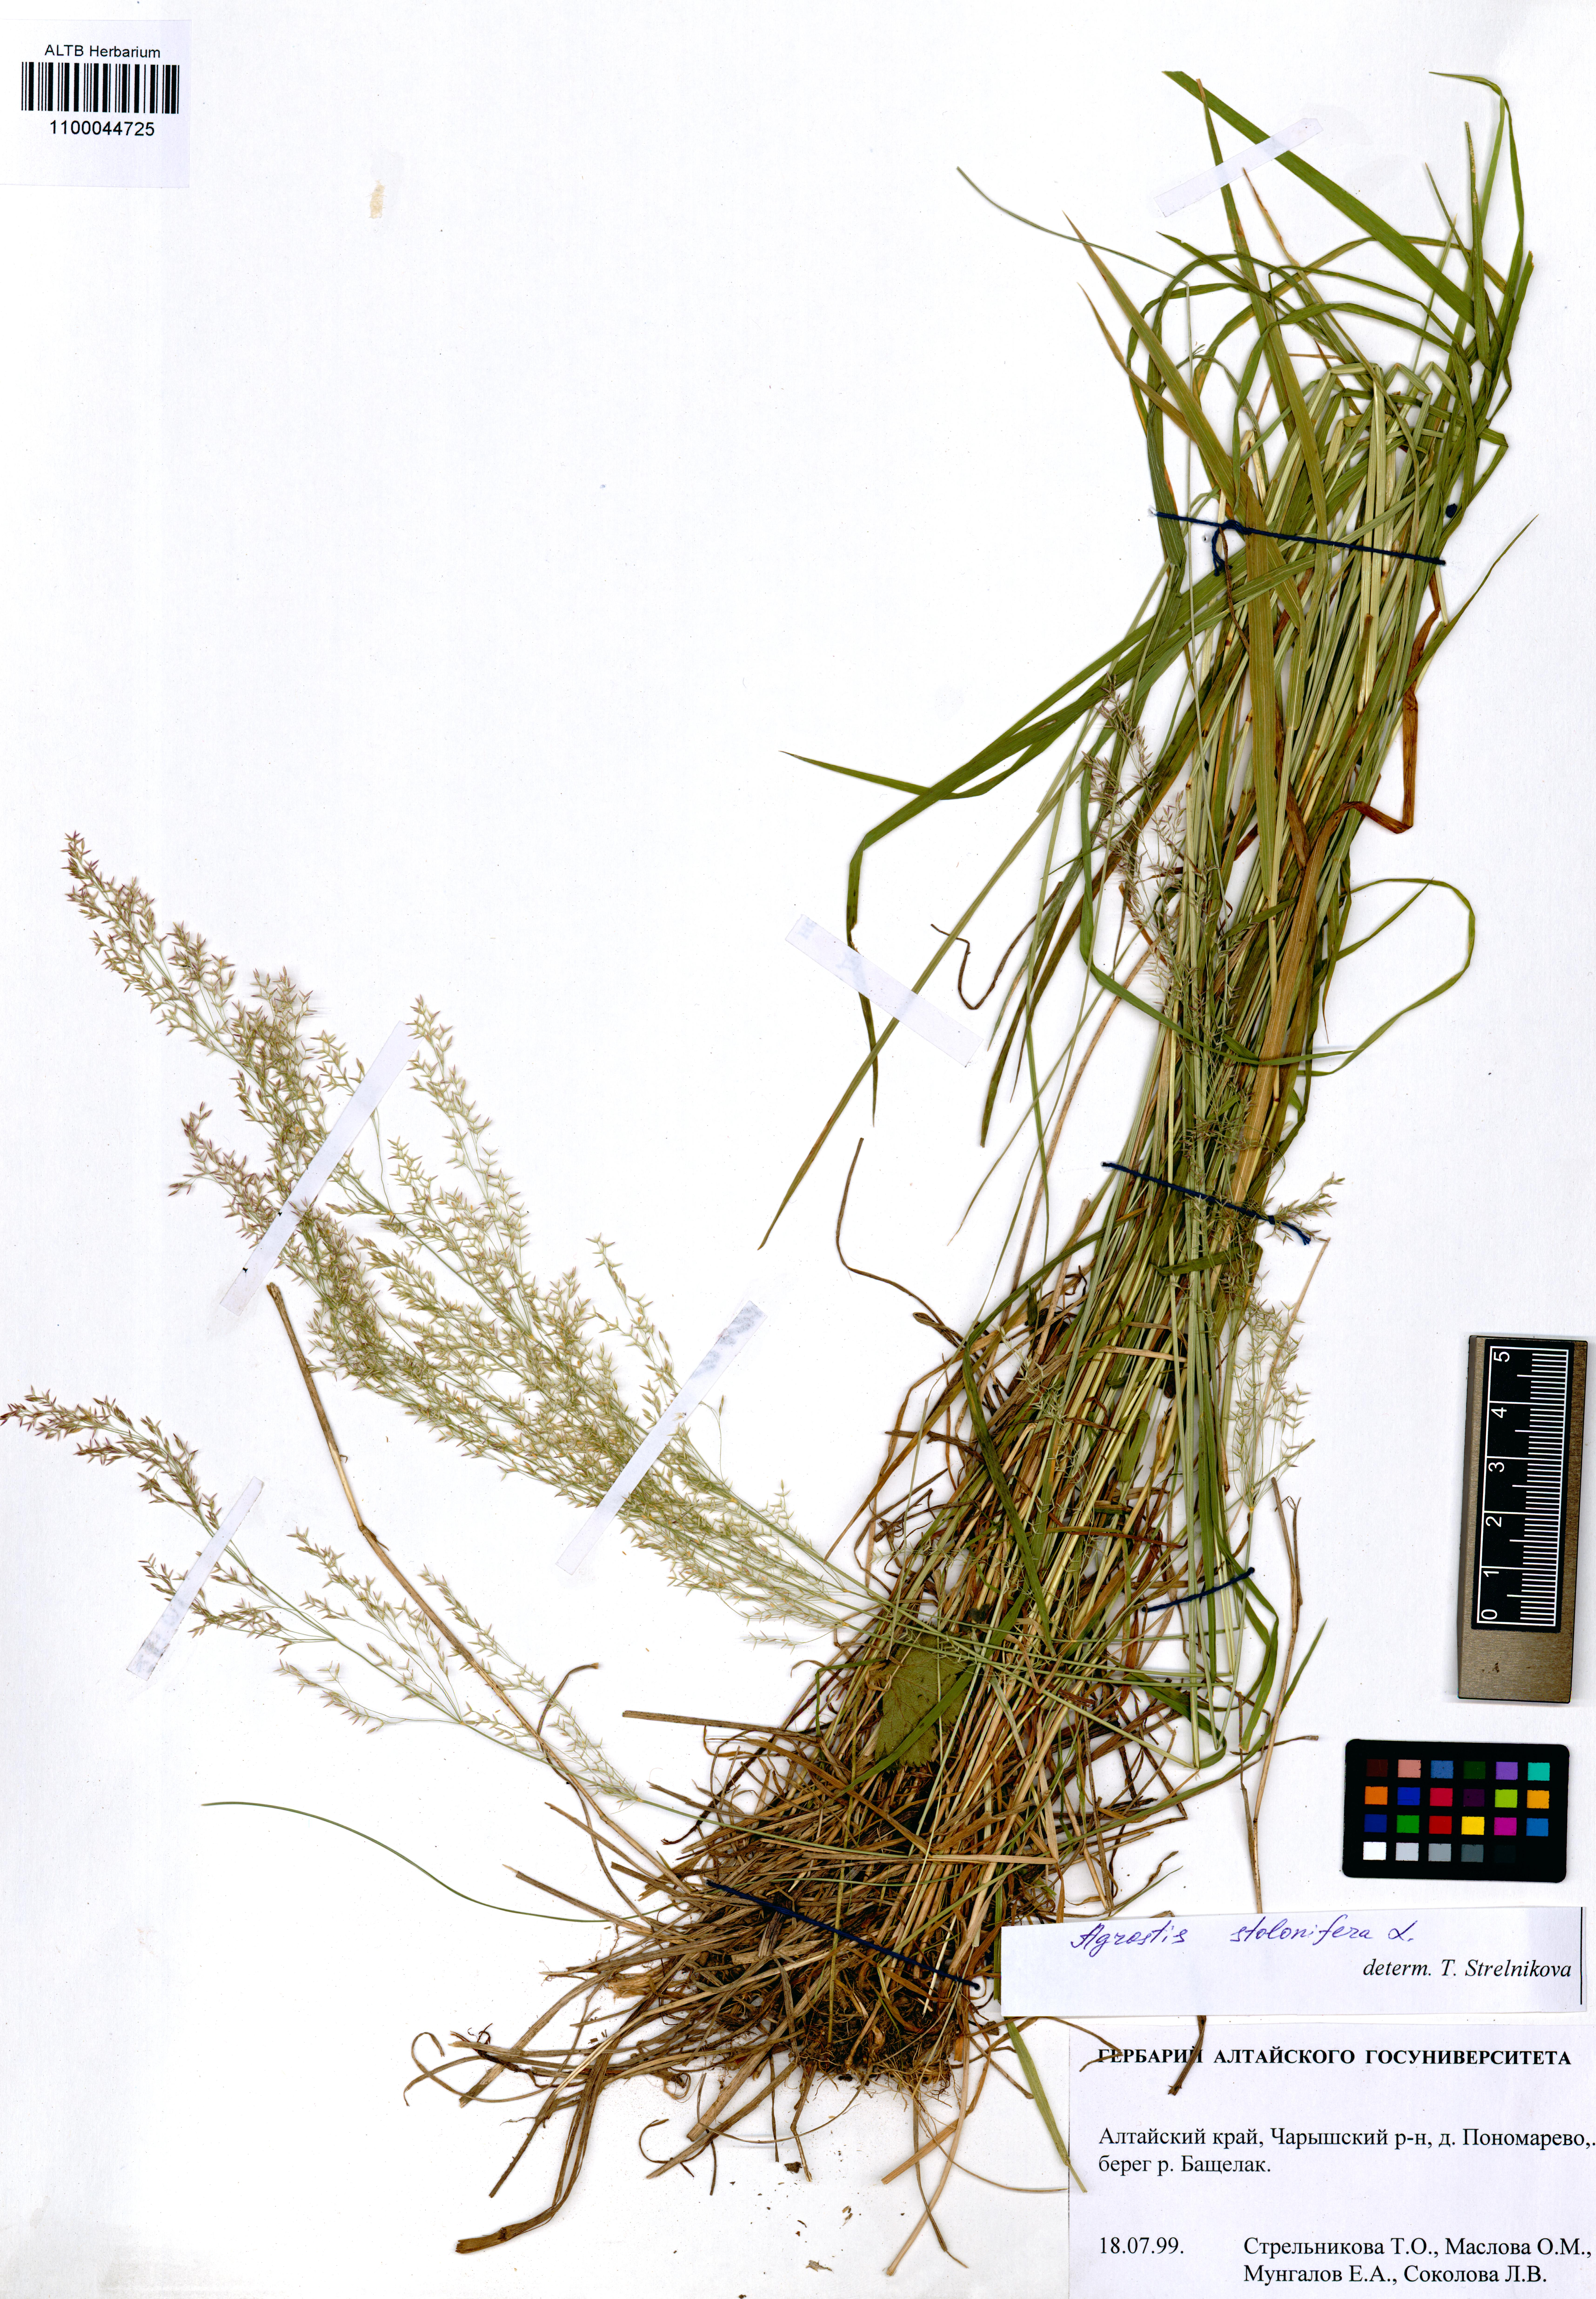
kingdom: Plantae
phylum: Tracheophyta
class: Liliopsida
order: Poales
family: Poaceae
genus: Agrostis
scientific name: Agrostis stolonifera
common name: Creeping bentgrass
